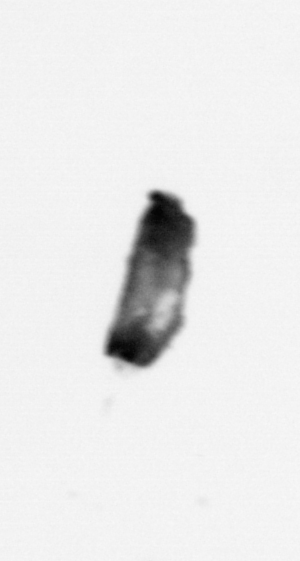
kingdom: Animalia
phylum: Arthropoda
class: Copepoda
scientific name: Copepoda
